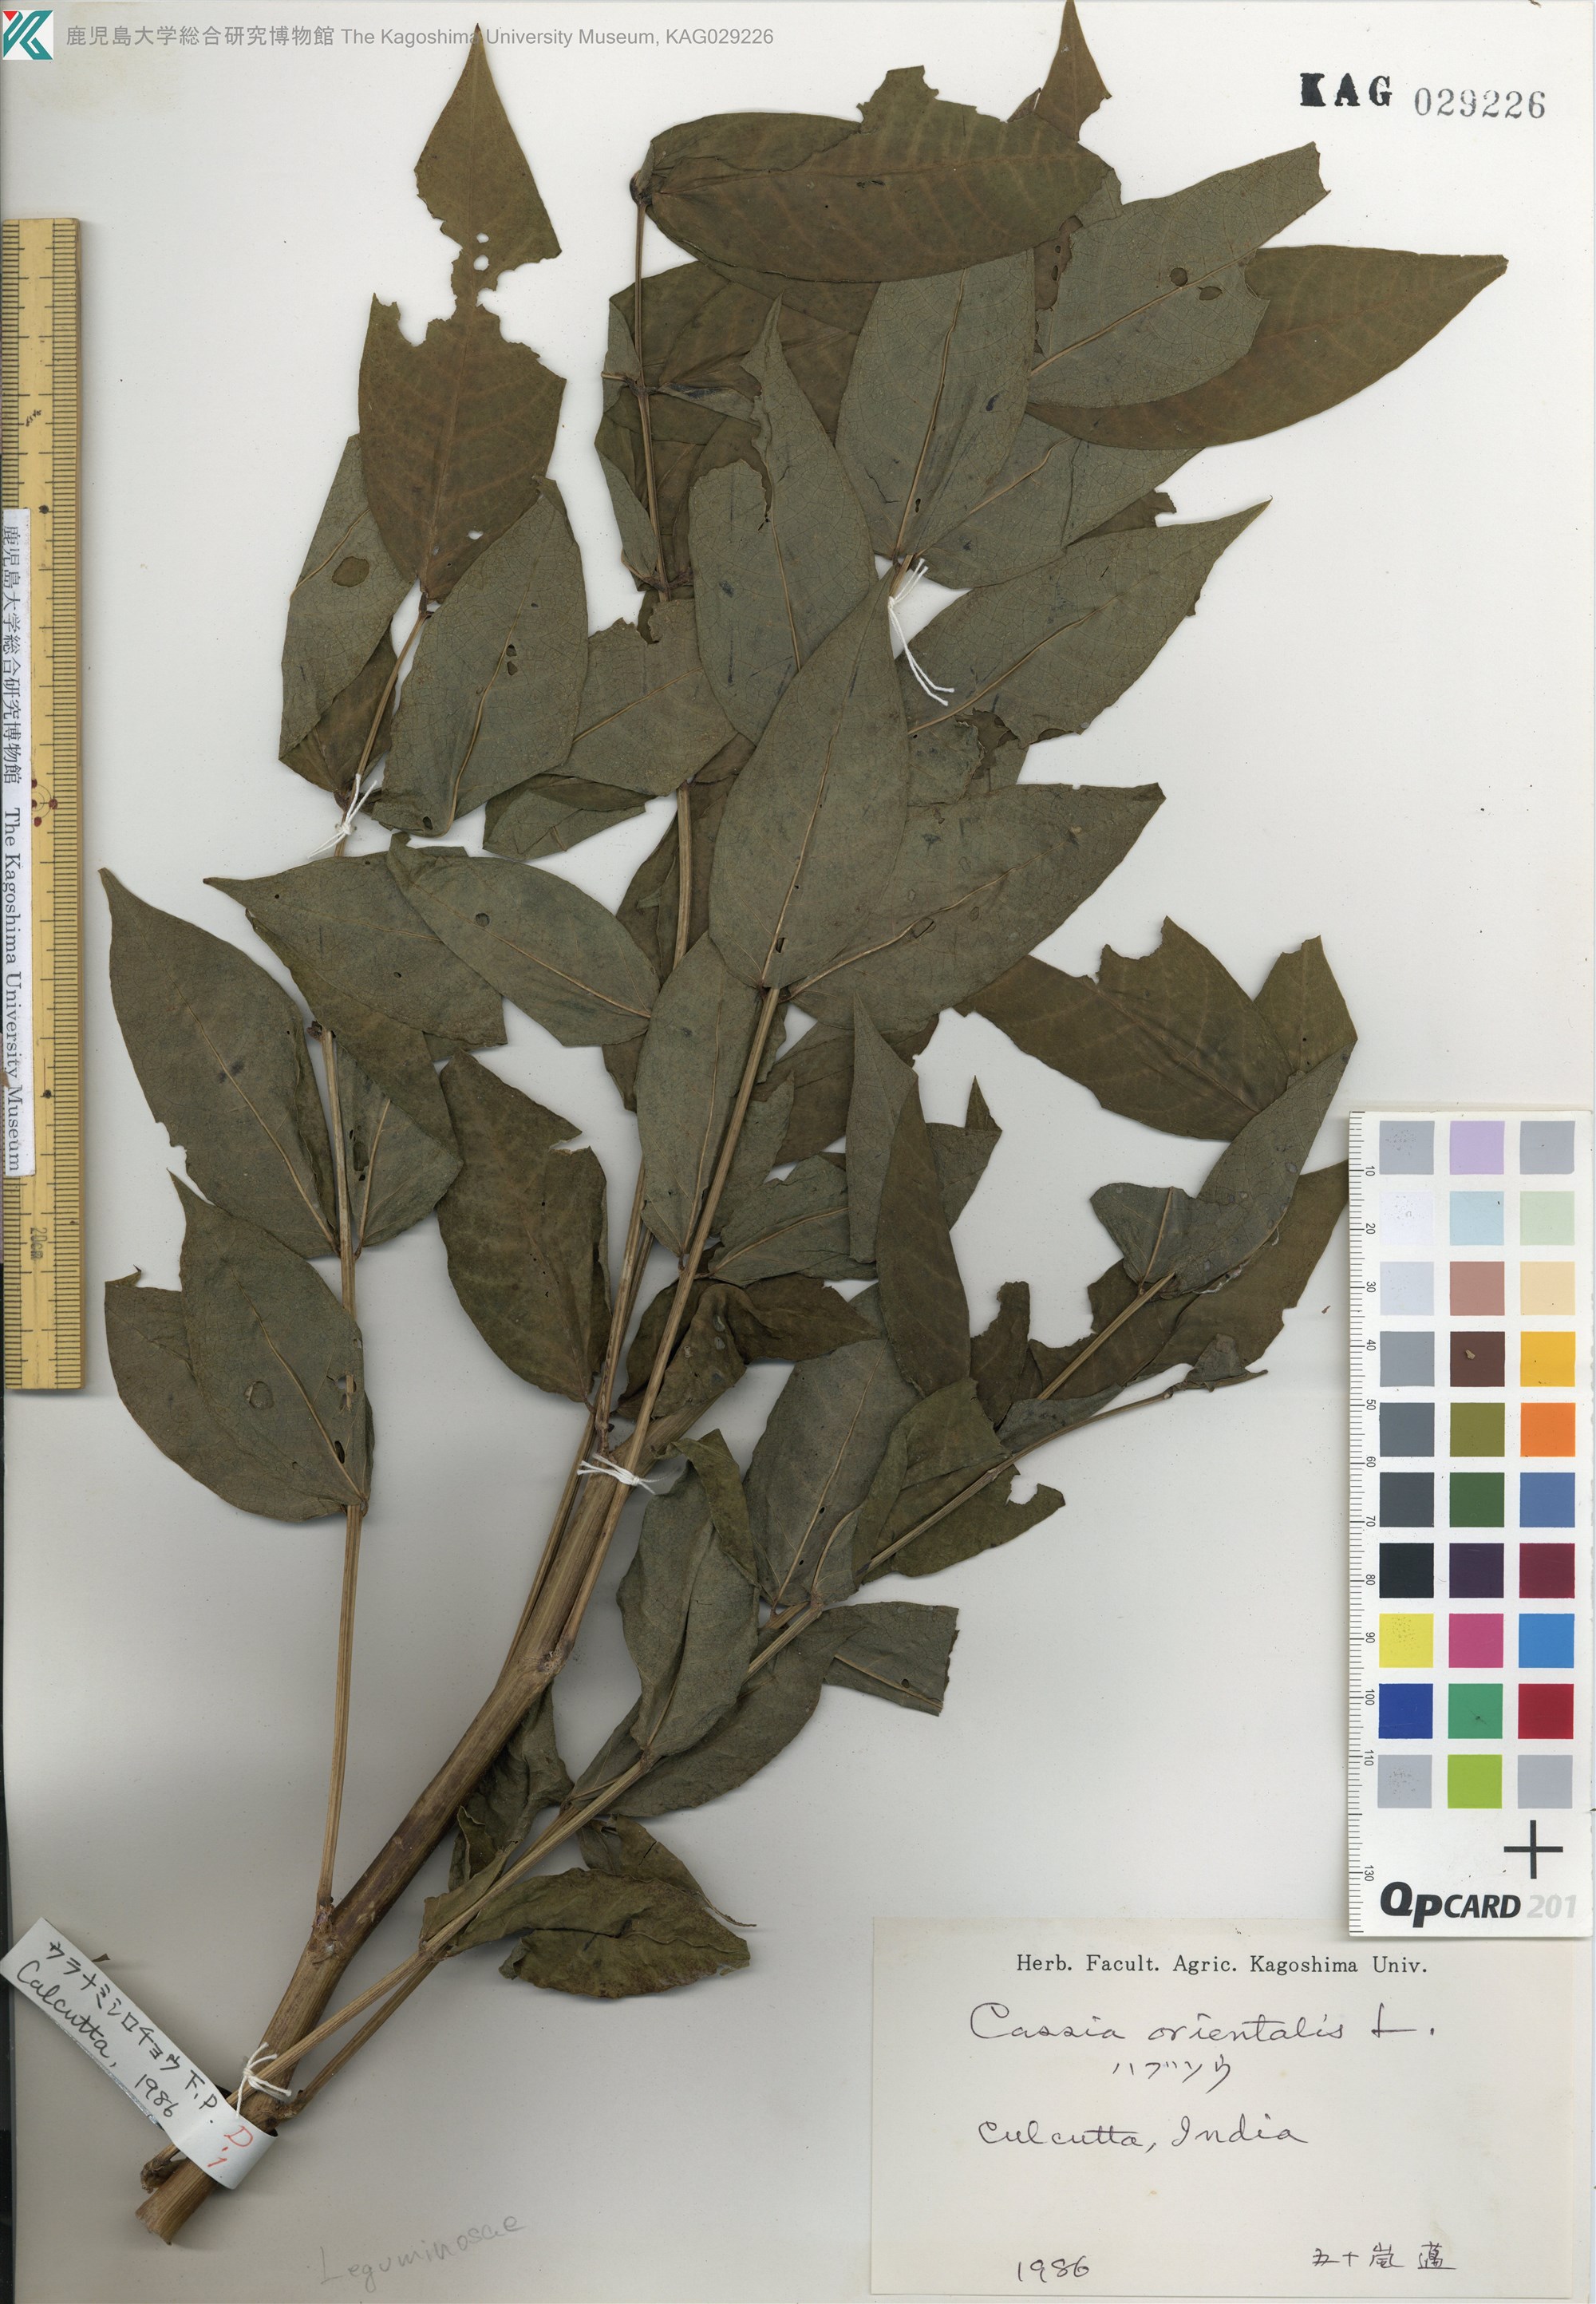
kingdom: Plantae
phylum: Tracheophyta
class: Magnoliopsida
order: Fabales
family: Fabaceae
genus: Senna
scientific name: Senna occidentalis
